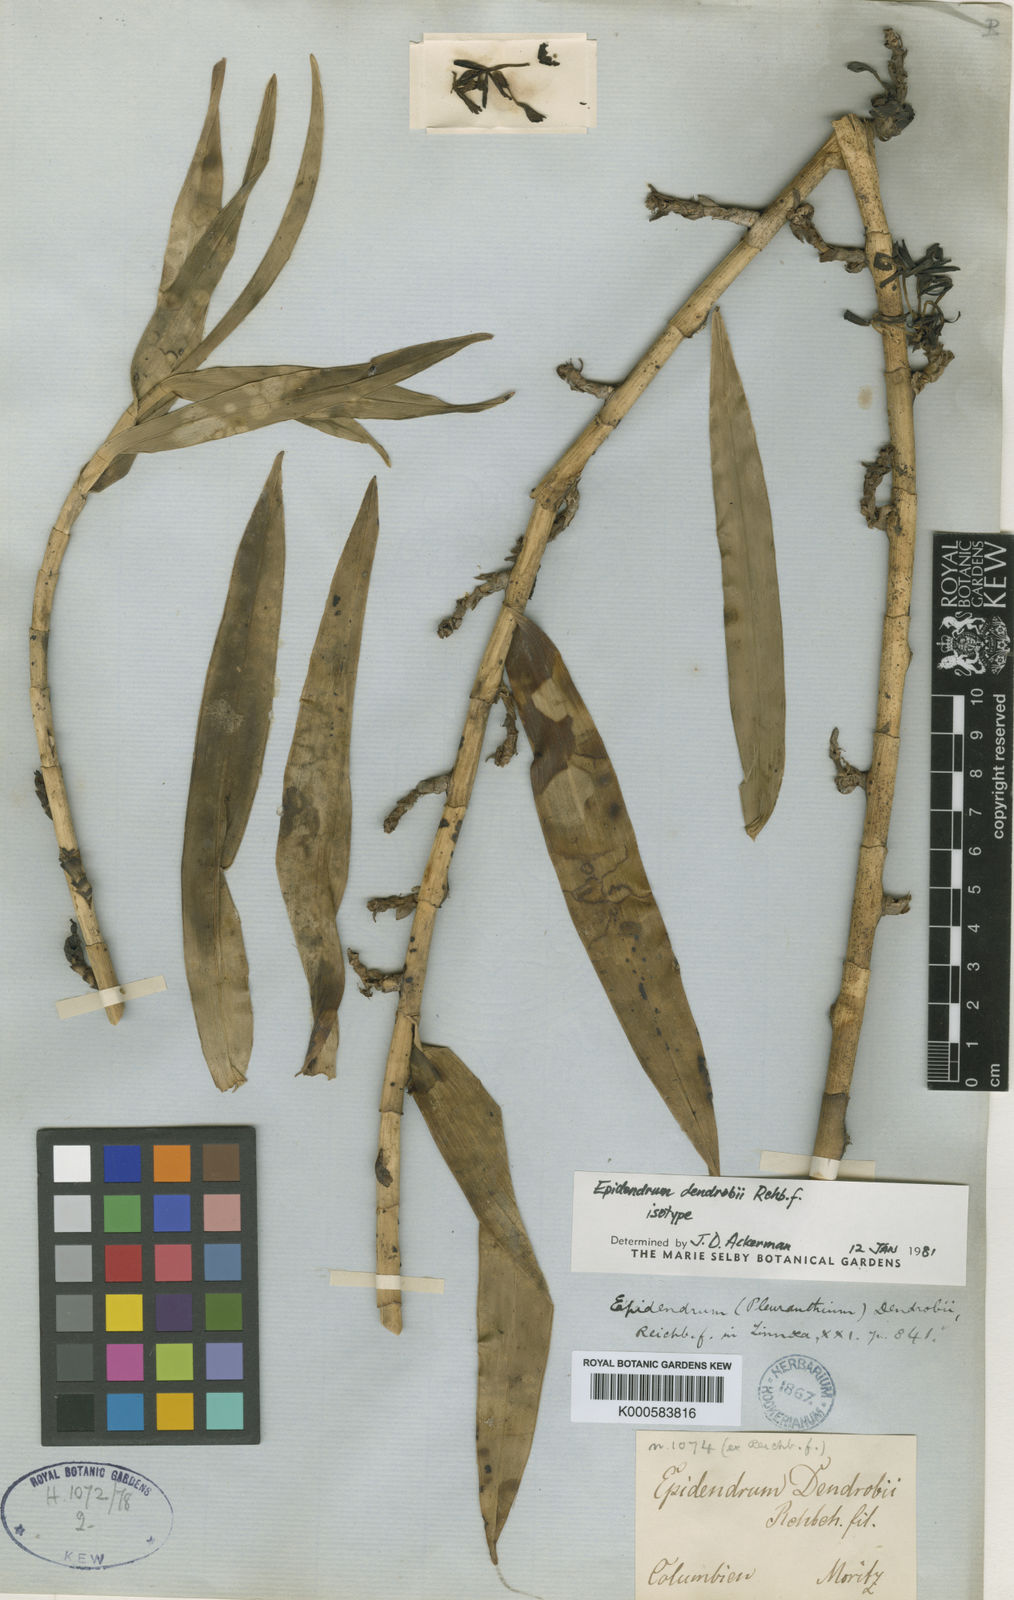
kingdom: Plantae
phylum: Tracheophyta
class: Liliopsida
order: Asparagales
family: Orchidaceae
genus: Epidendrum
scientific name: Epidendrum dendrobii
